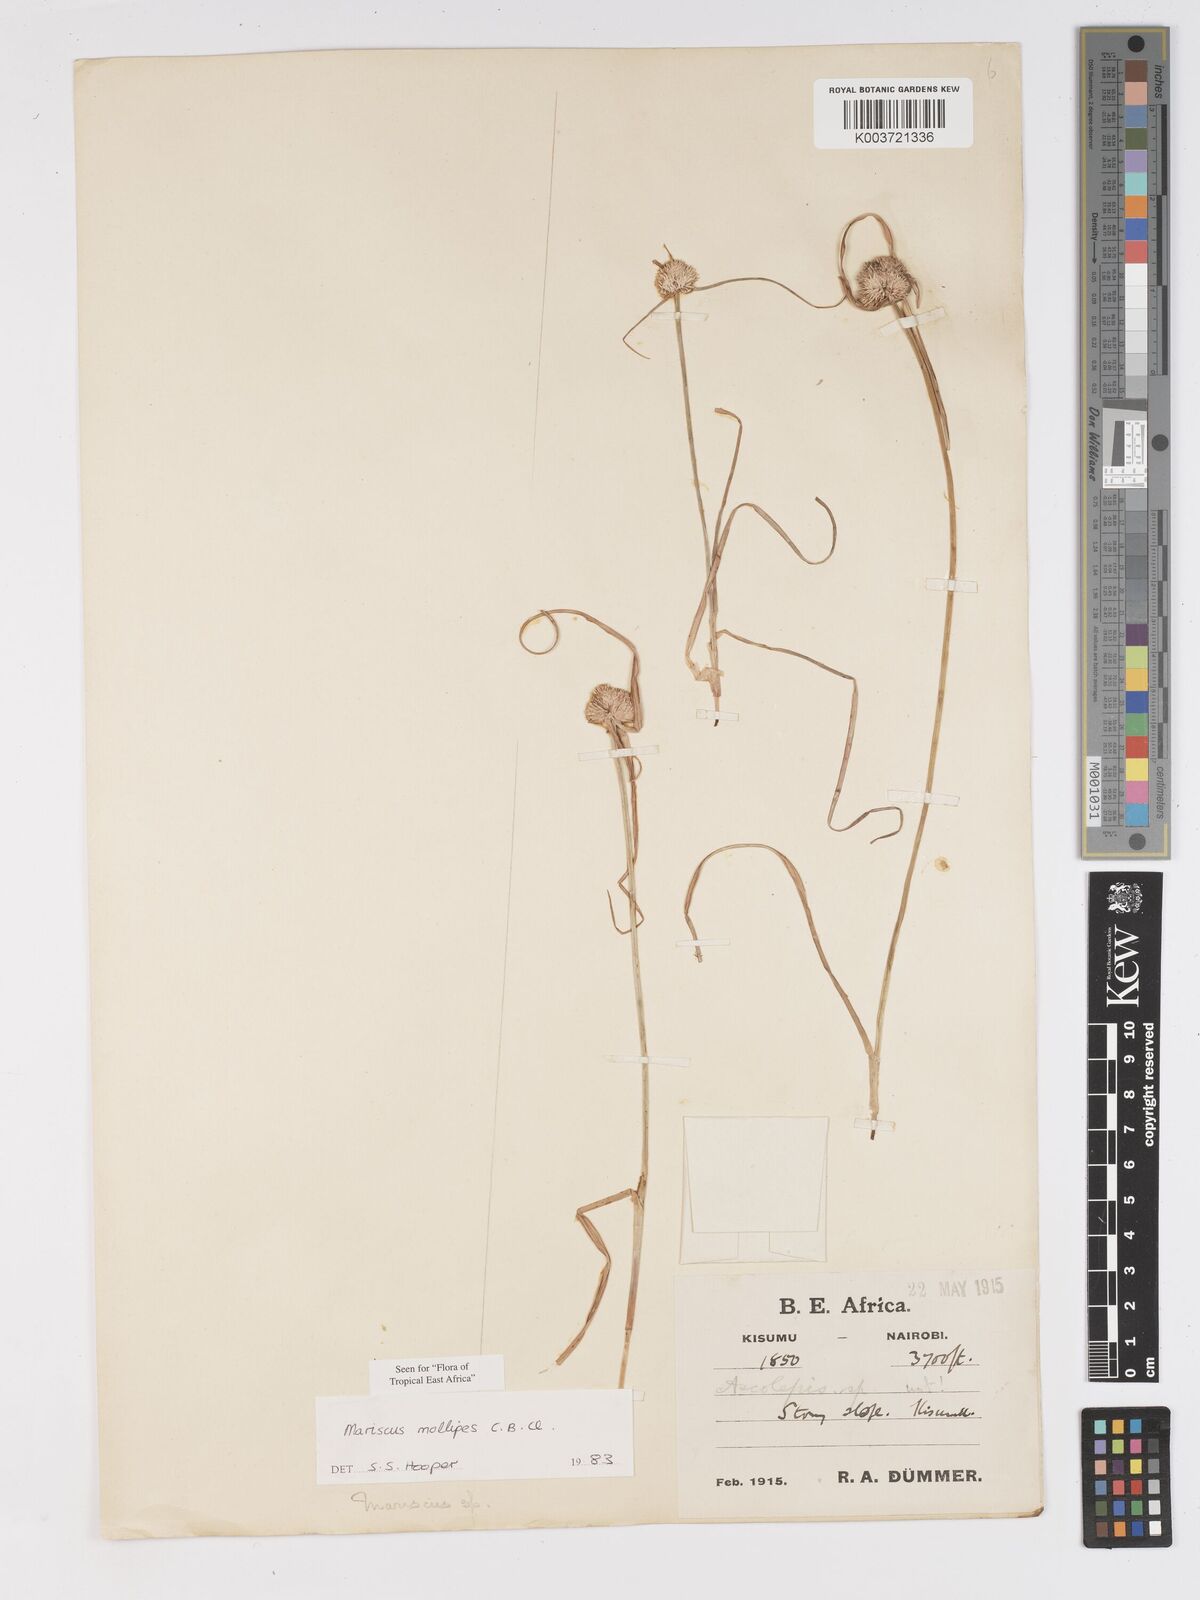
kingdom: Plantae
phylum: Tracheophyta
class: Liliopsida
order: Poales
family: Cyperaceae
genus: Cyperus
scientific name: Cyperus mollipes
